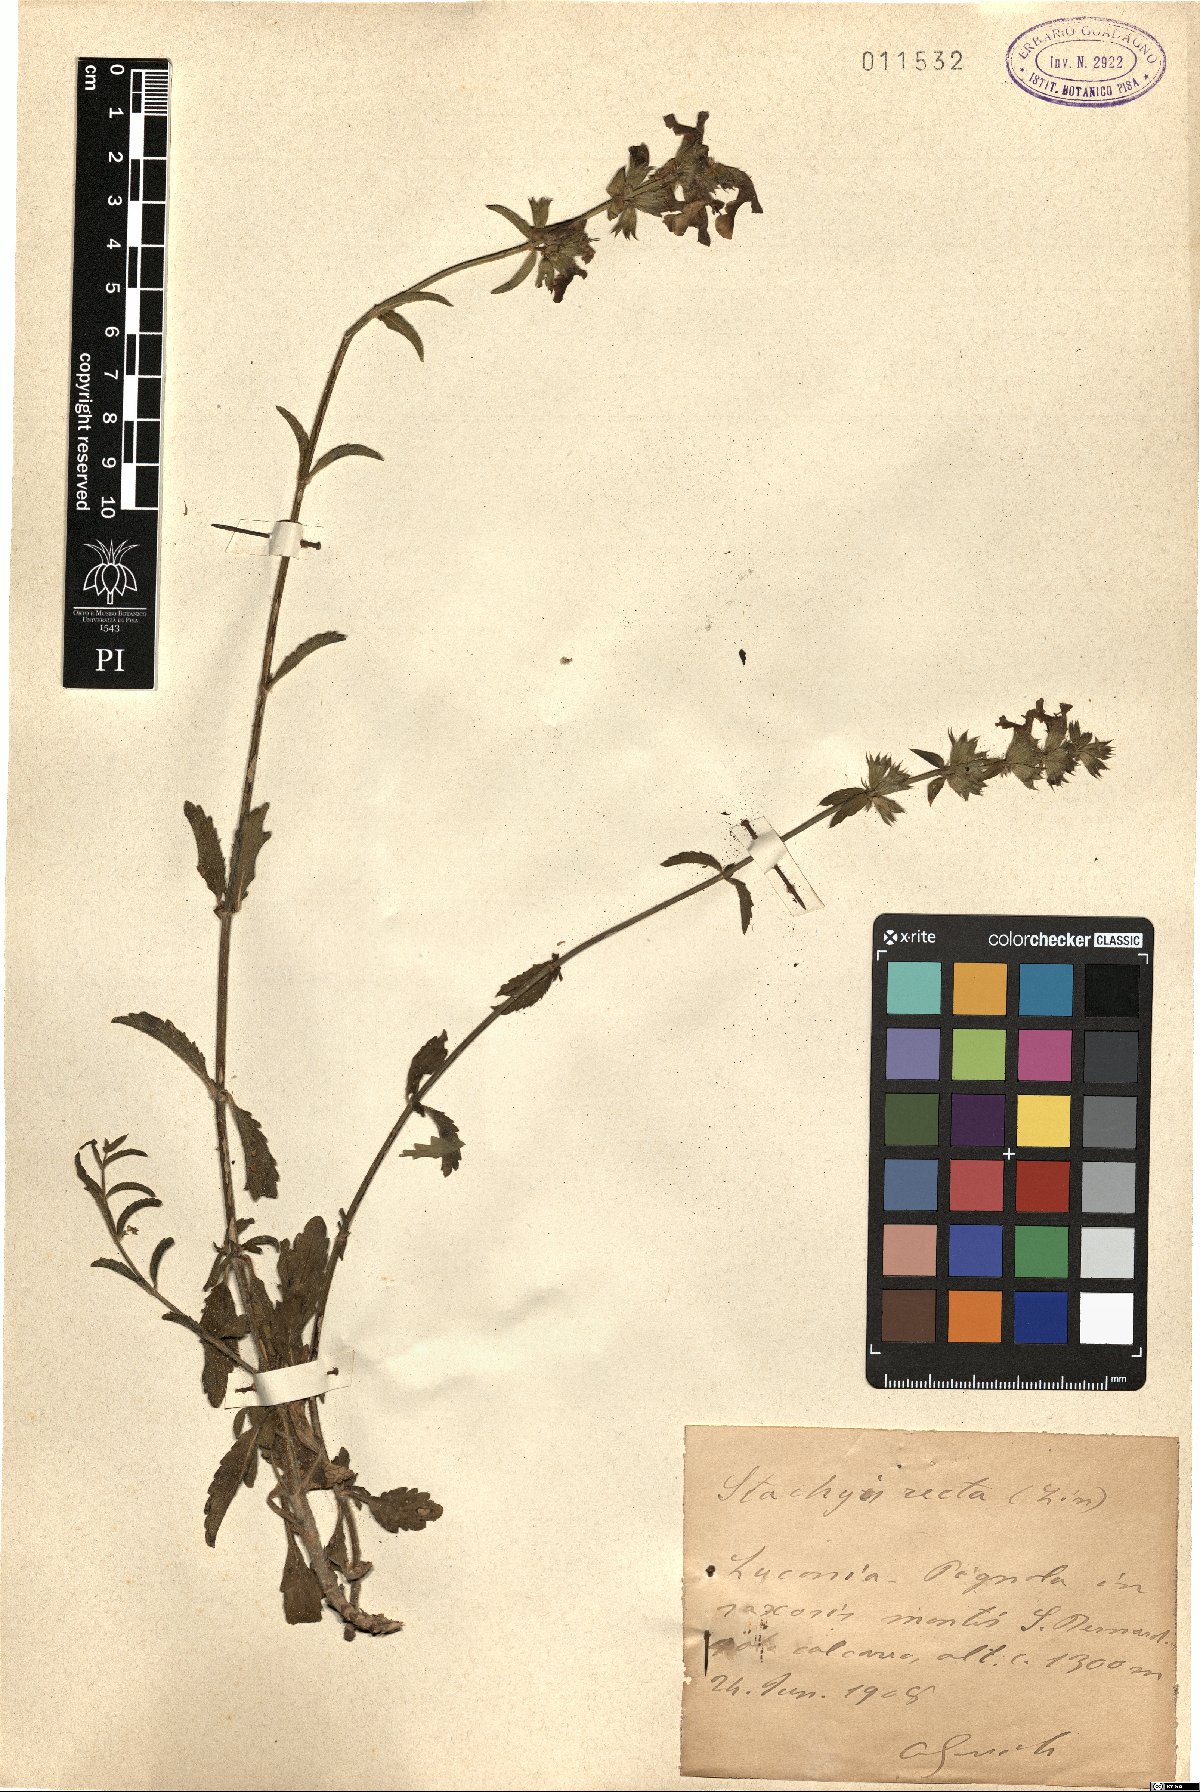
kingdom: Plantae
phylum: Tracheophyta
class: Magnoliopsida
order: Lamiales
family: Lamiaceae
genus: Stachys
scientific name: Stachys recta
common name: Perennial yellow-woundwort
